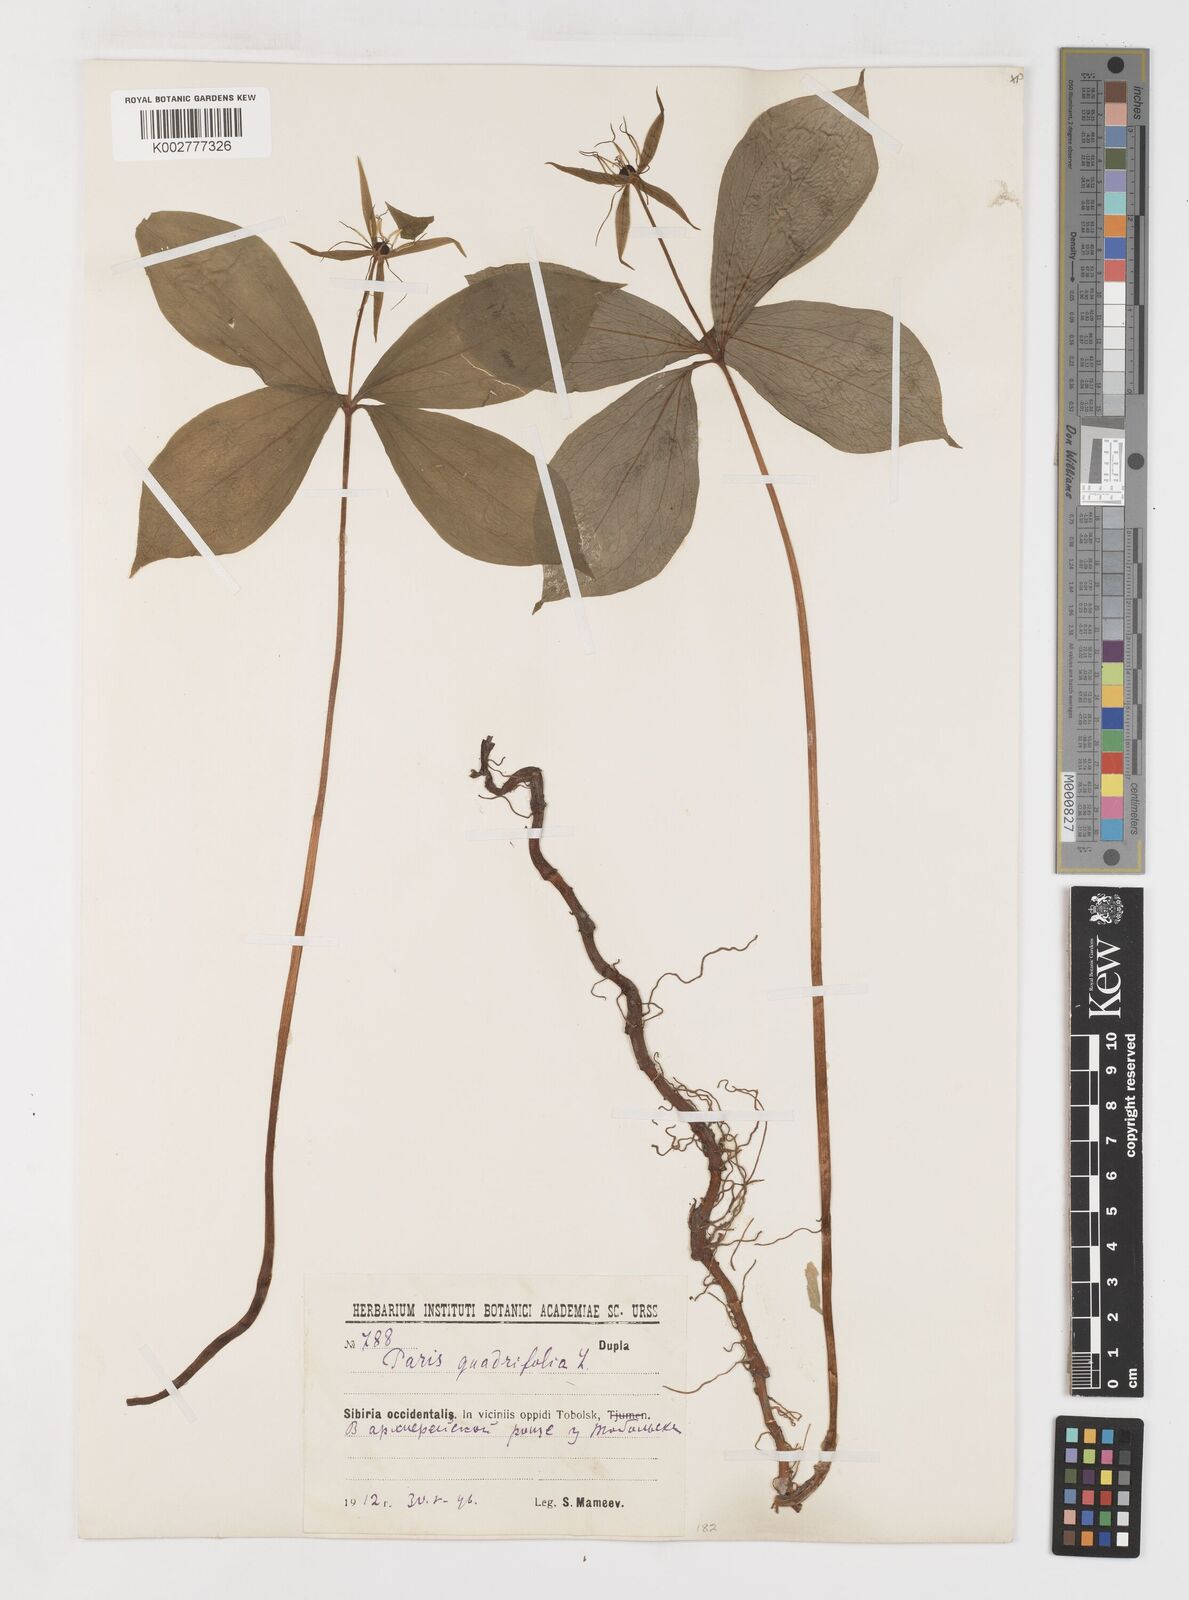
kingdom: Plantae
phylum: Tracheophyta
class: Liliopsida
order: Liliales
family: Melanthiaceae
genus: Paris
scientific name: Paris quadrifolia
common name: Herb-paris
